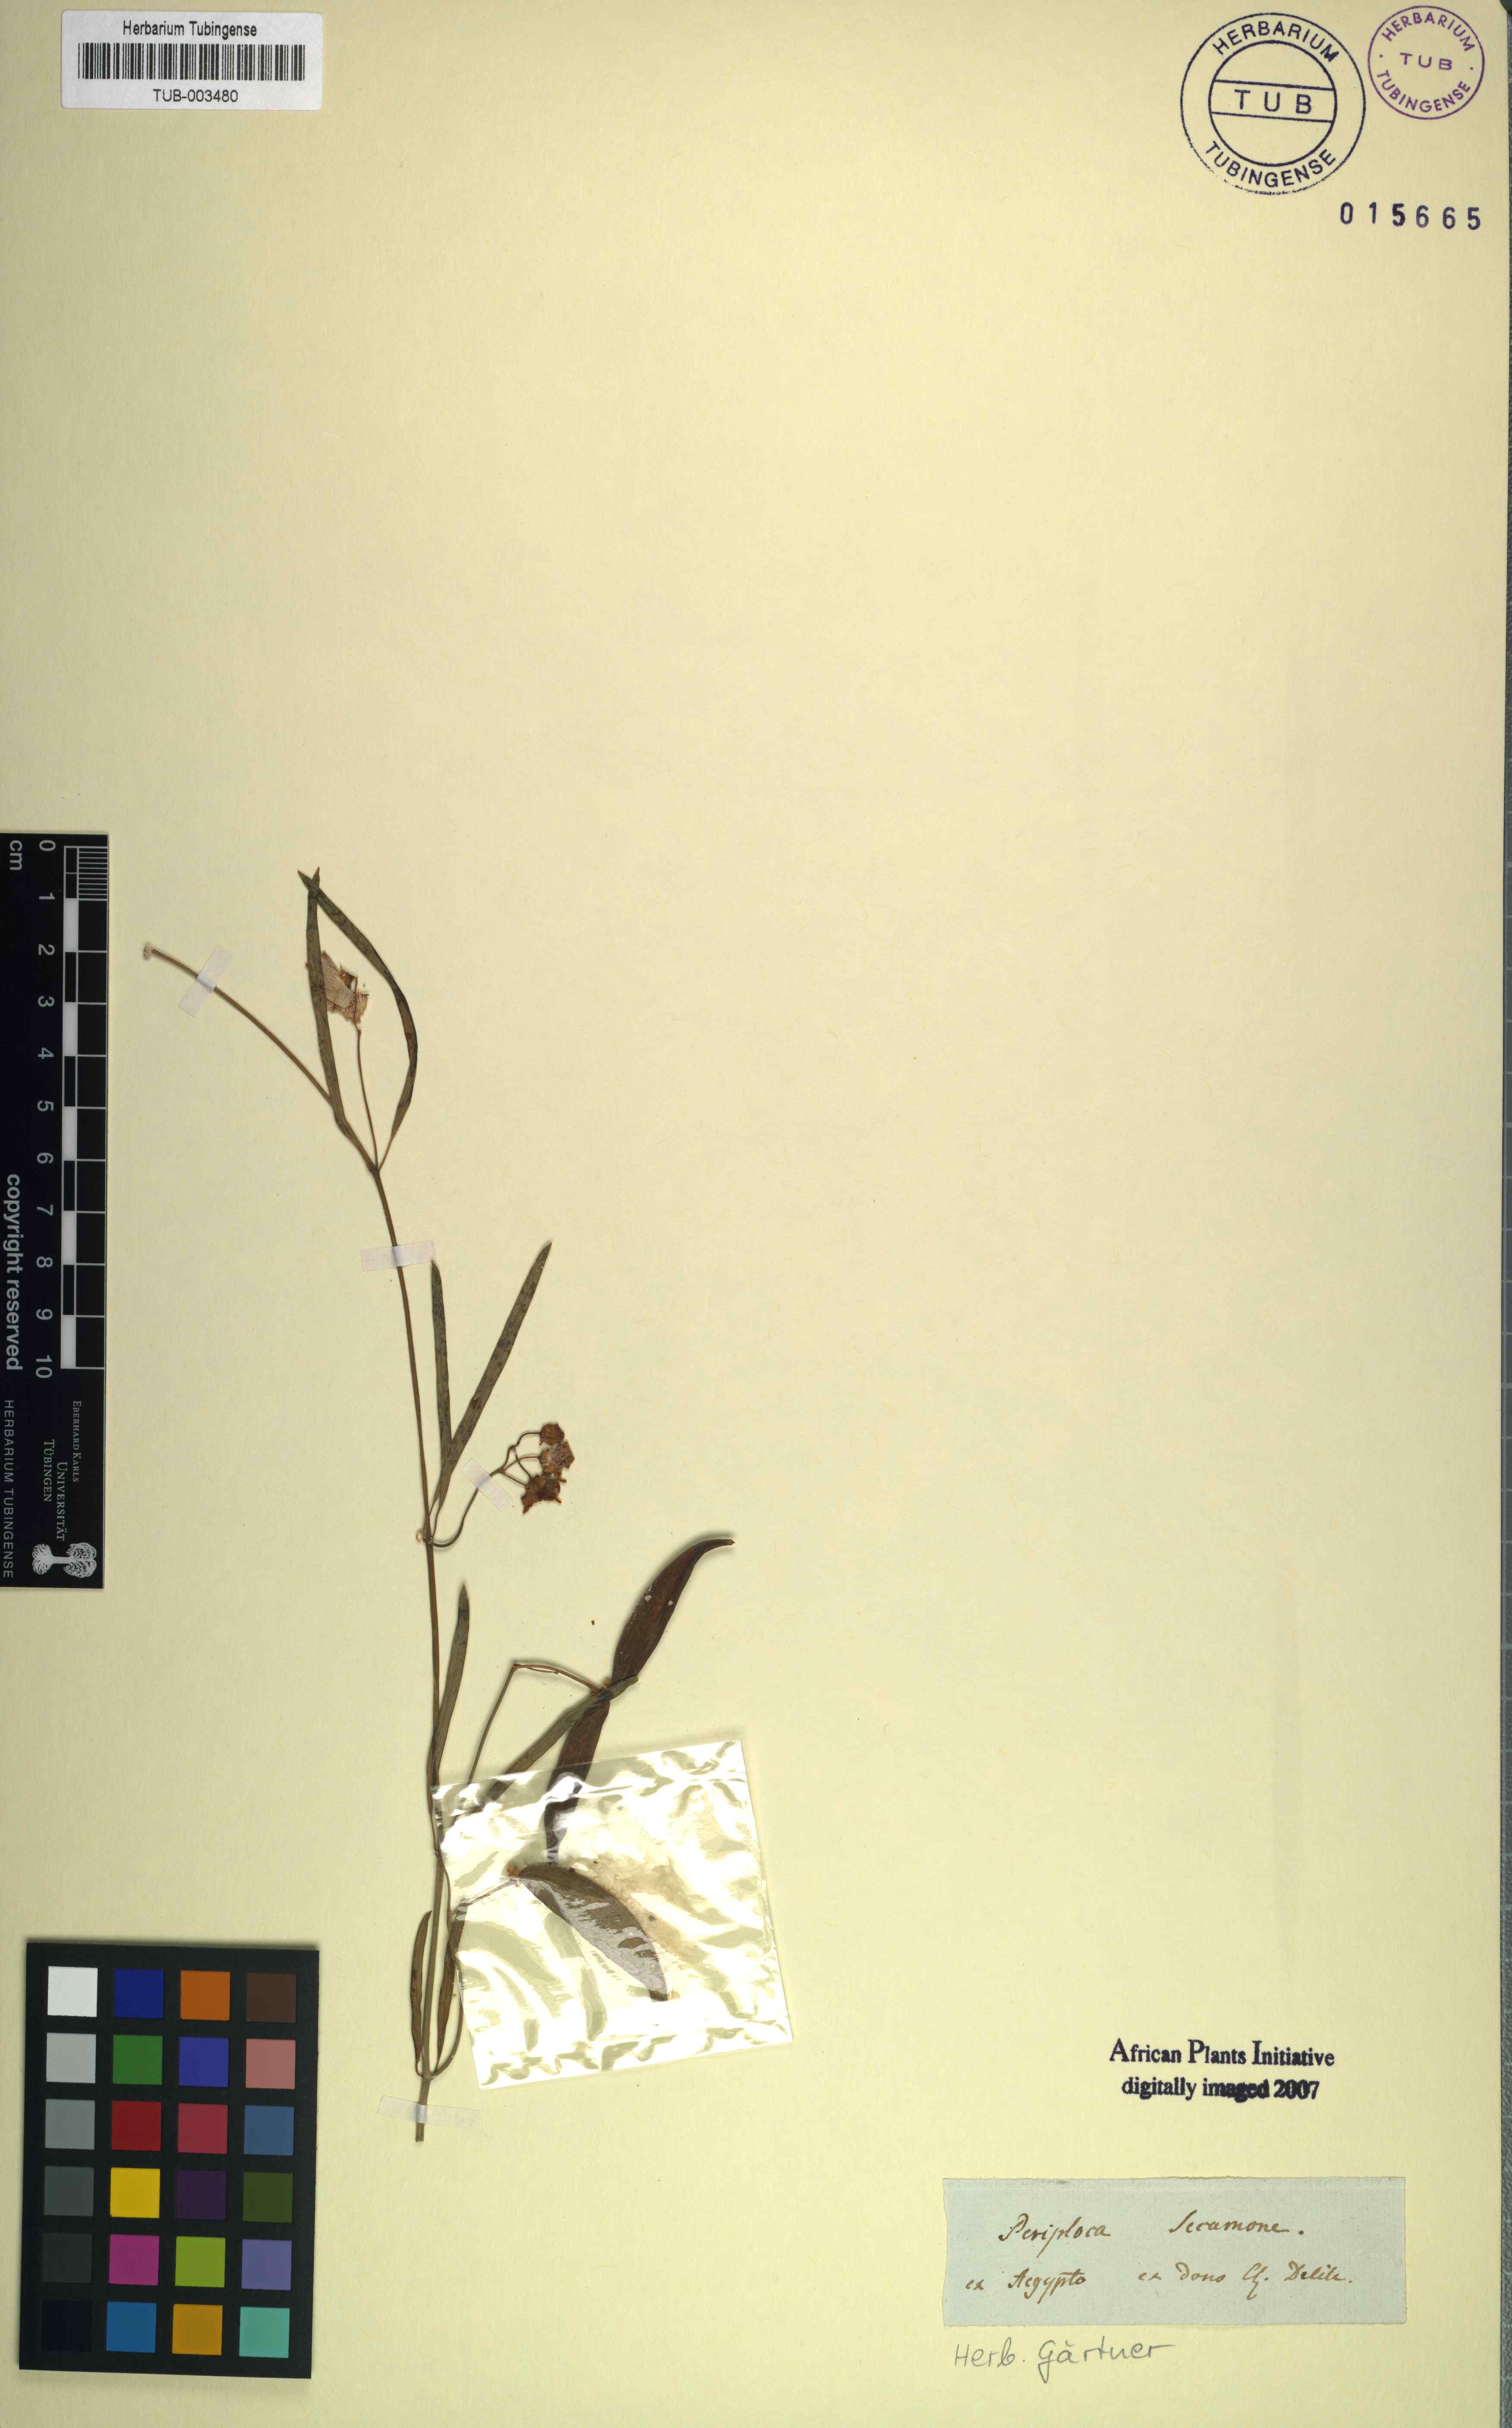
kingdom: Plantae
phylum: Tracheophyta
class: Magnoliopsida
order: Gentianales
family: Apocynaceae
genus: Oxystelma
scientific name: Oxystelma wallichii
